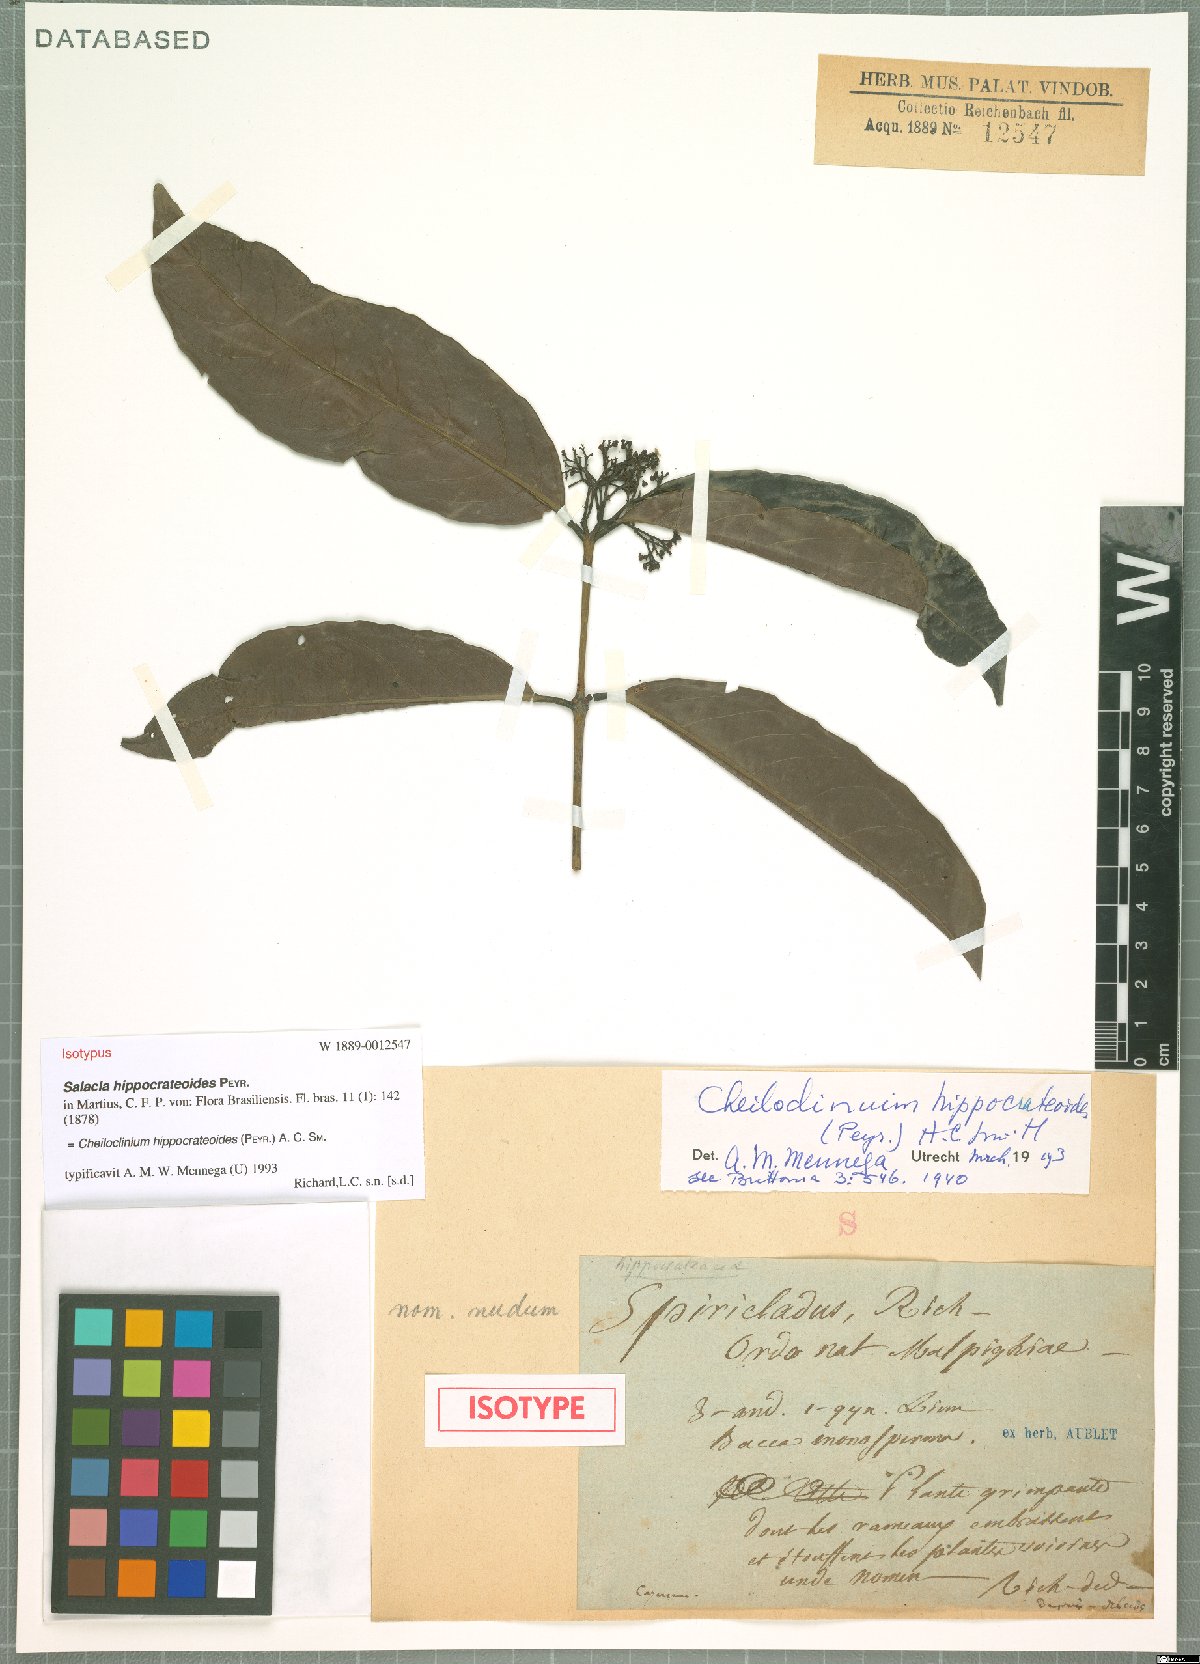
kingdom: Plantae
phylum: Tracheophyta
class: Magnoliopsida
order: Celastrales
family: Celastraceae
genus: Cheiloclinium
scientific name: Cheiloclinium hippocrateoides
